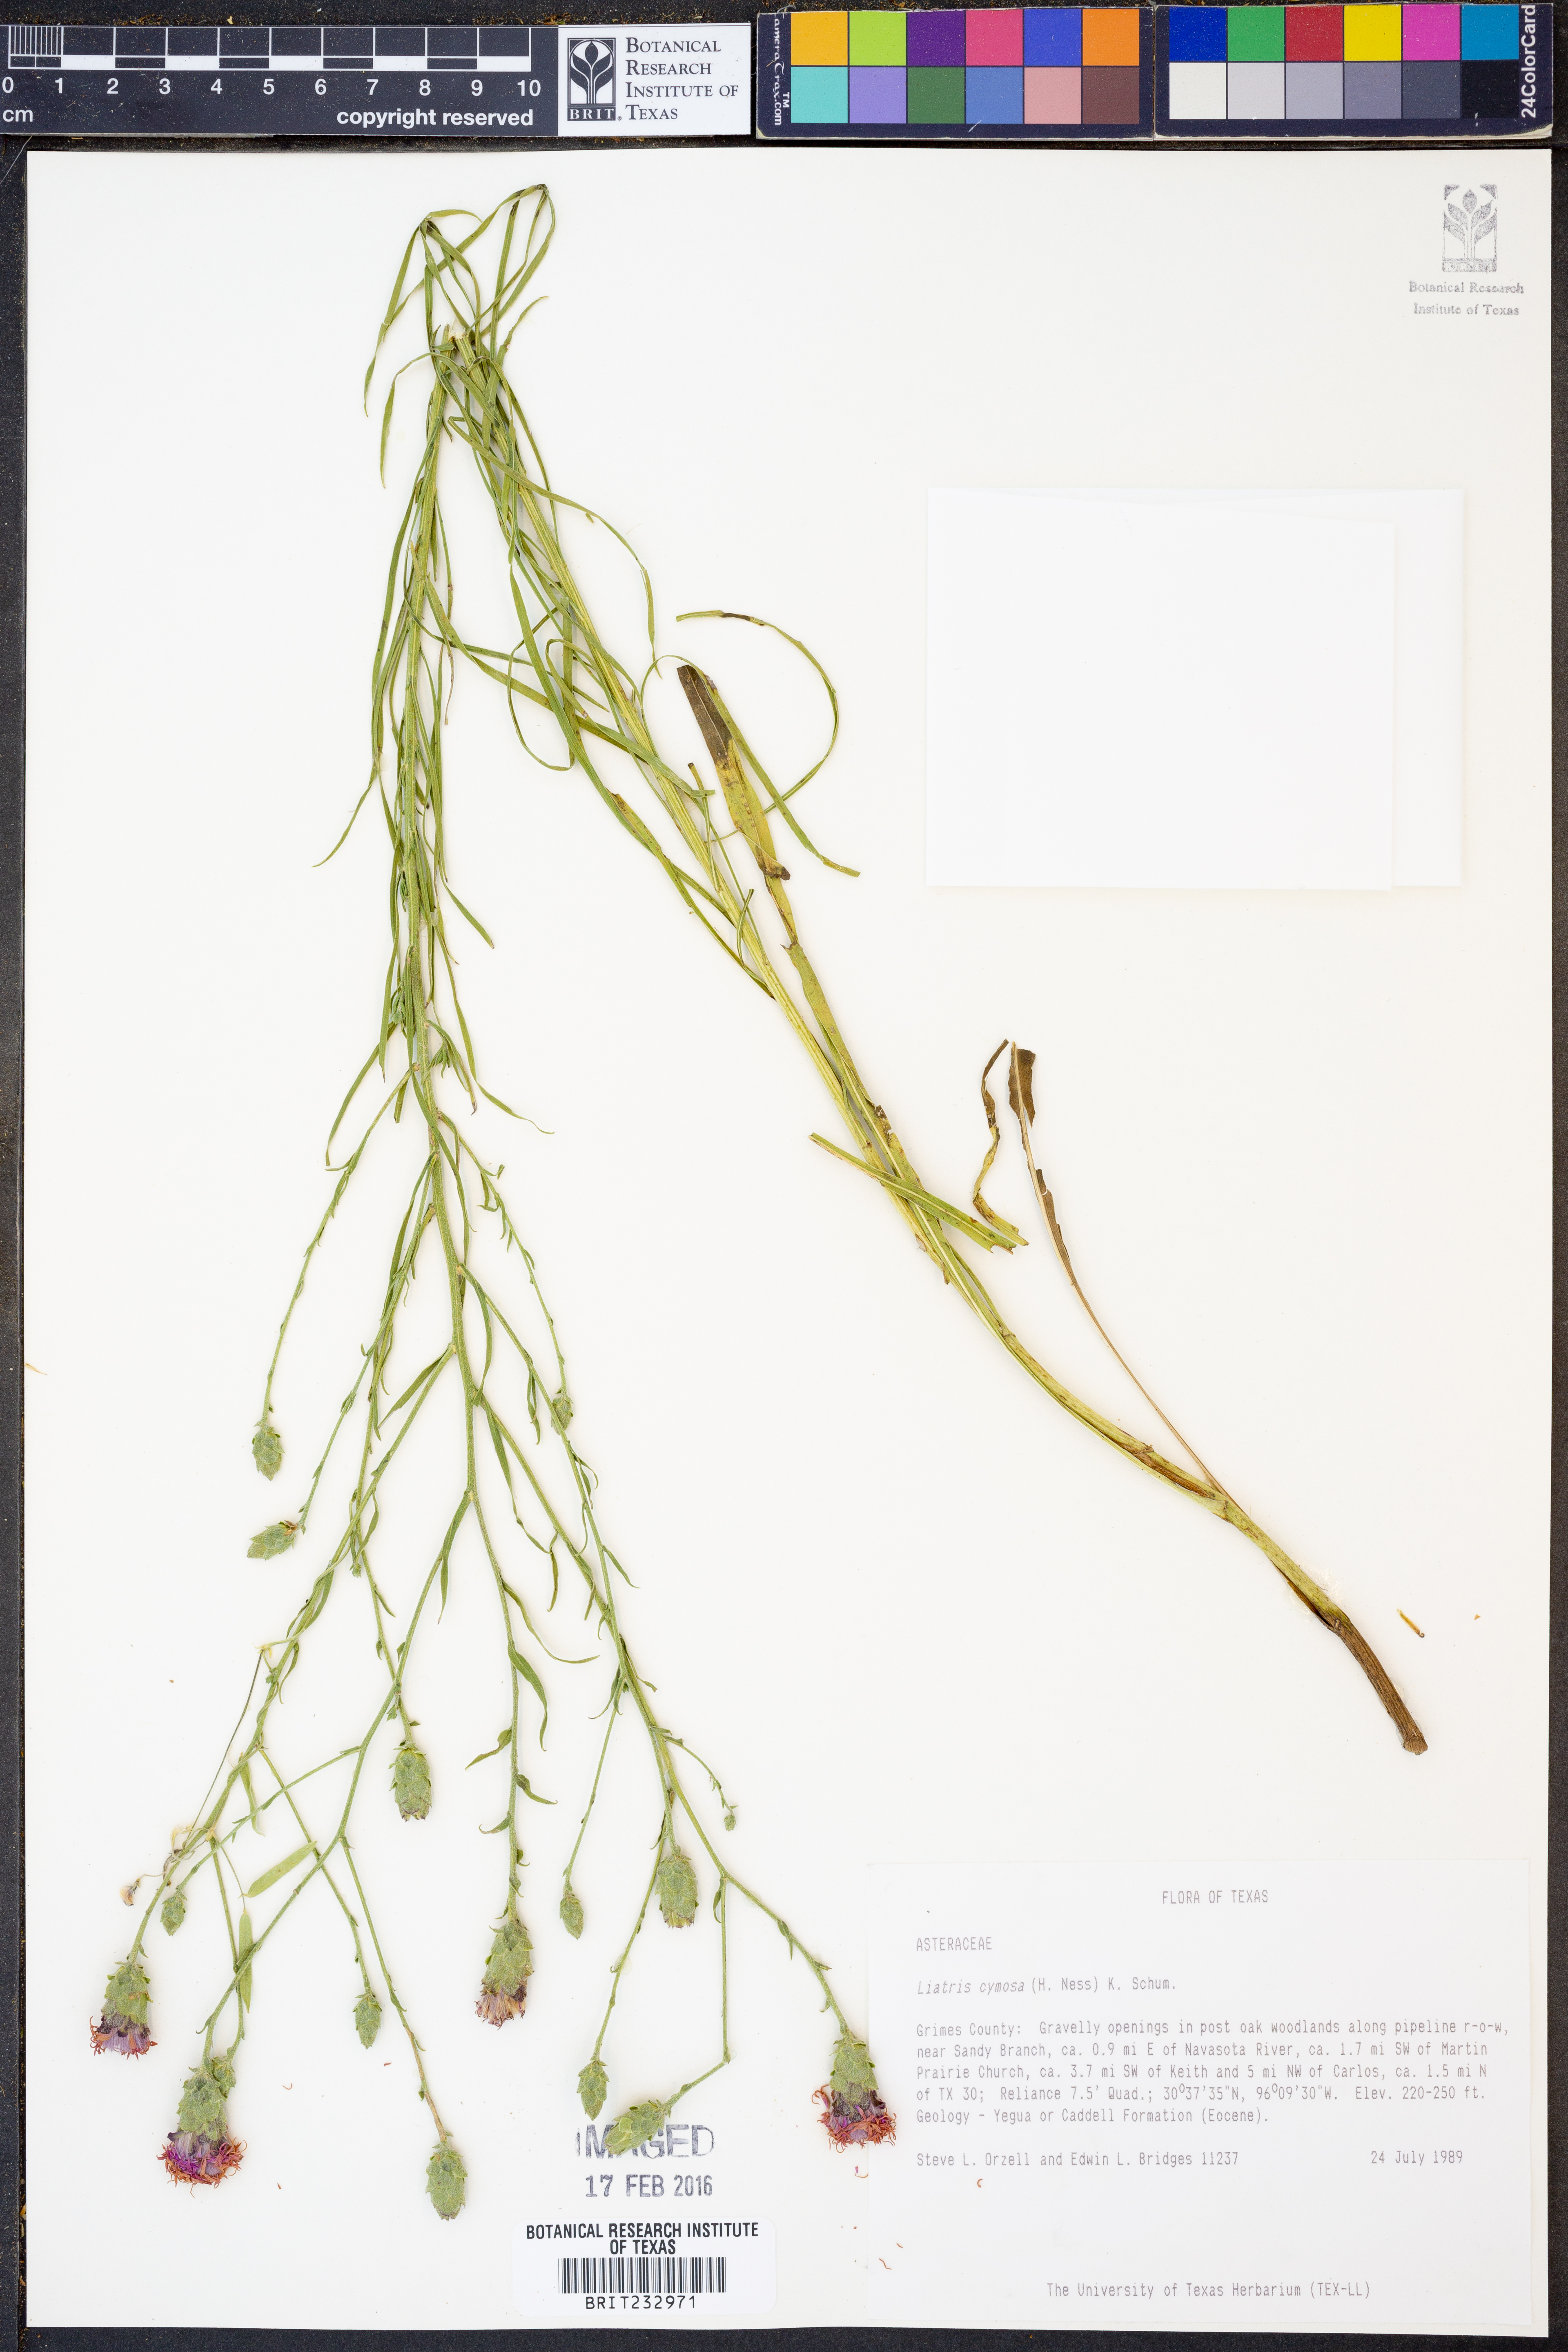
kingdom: Plantae
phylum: Tracheophyta
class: Magnoliopsida
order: Asterales
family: Asteraceae
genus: Liatris
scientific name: Liatris cymosa
